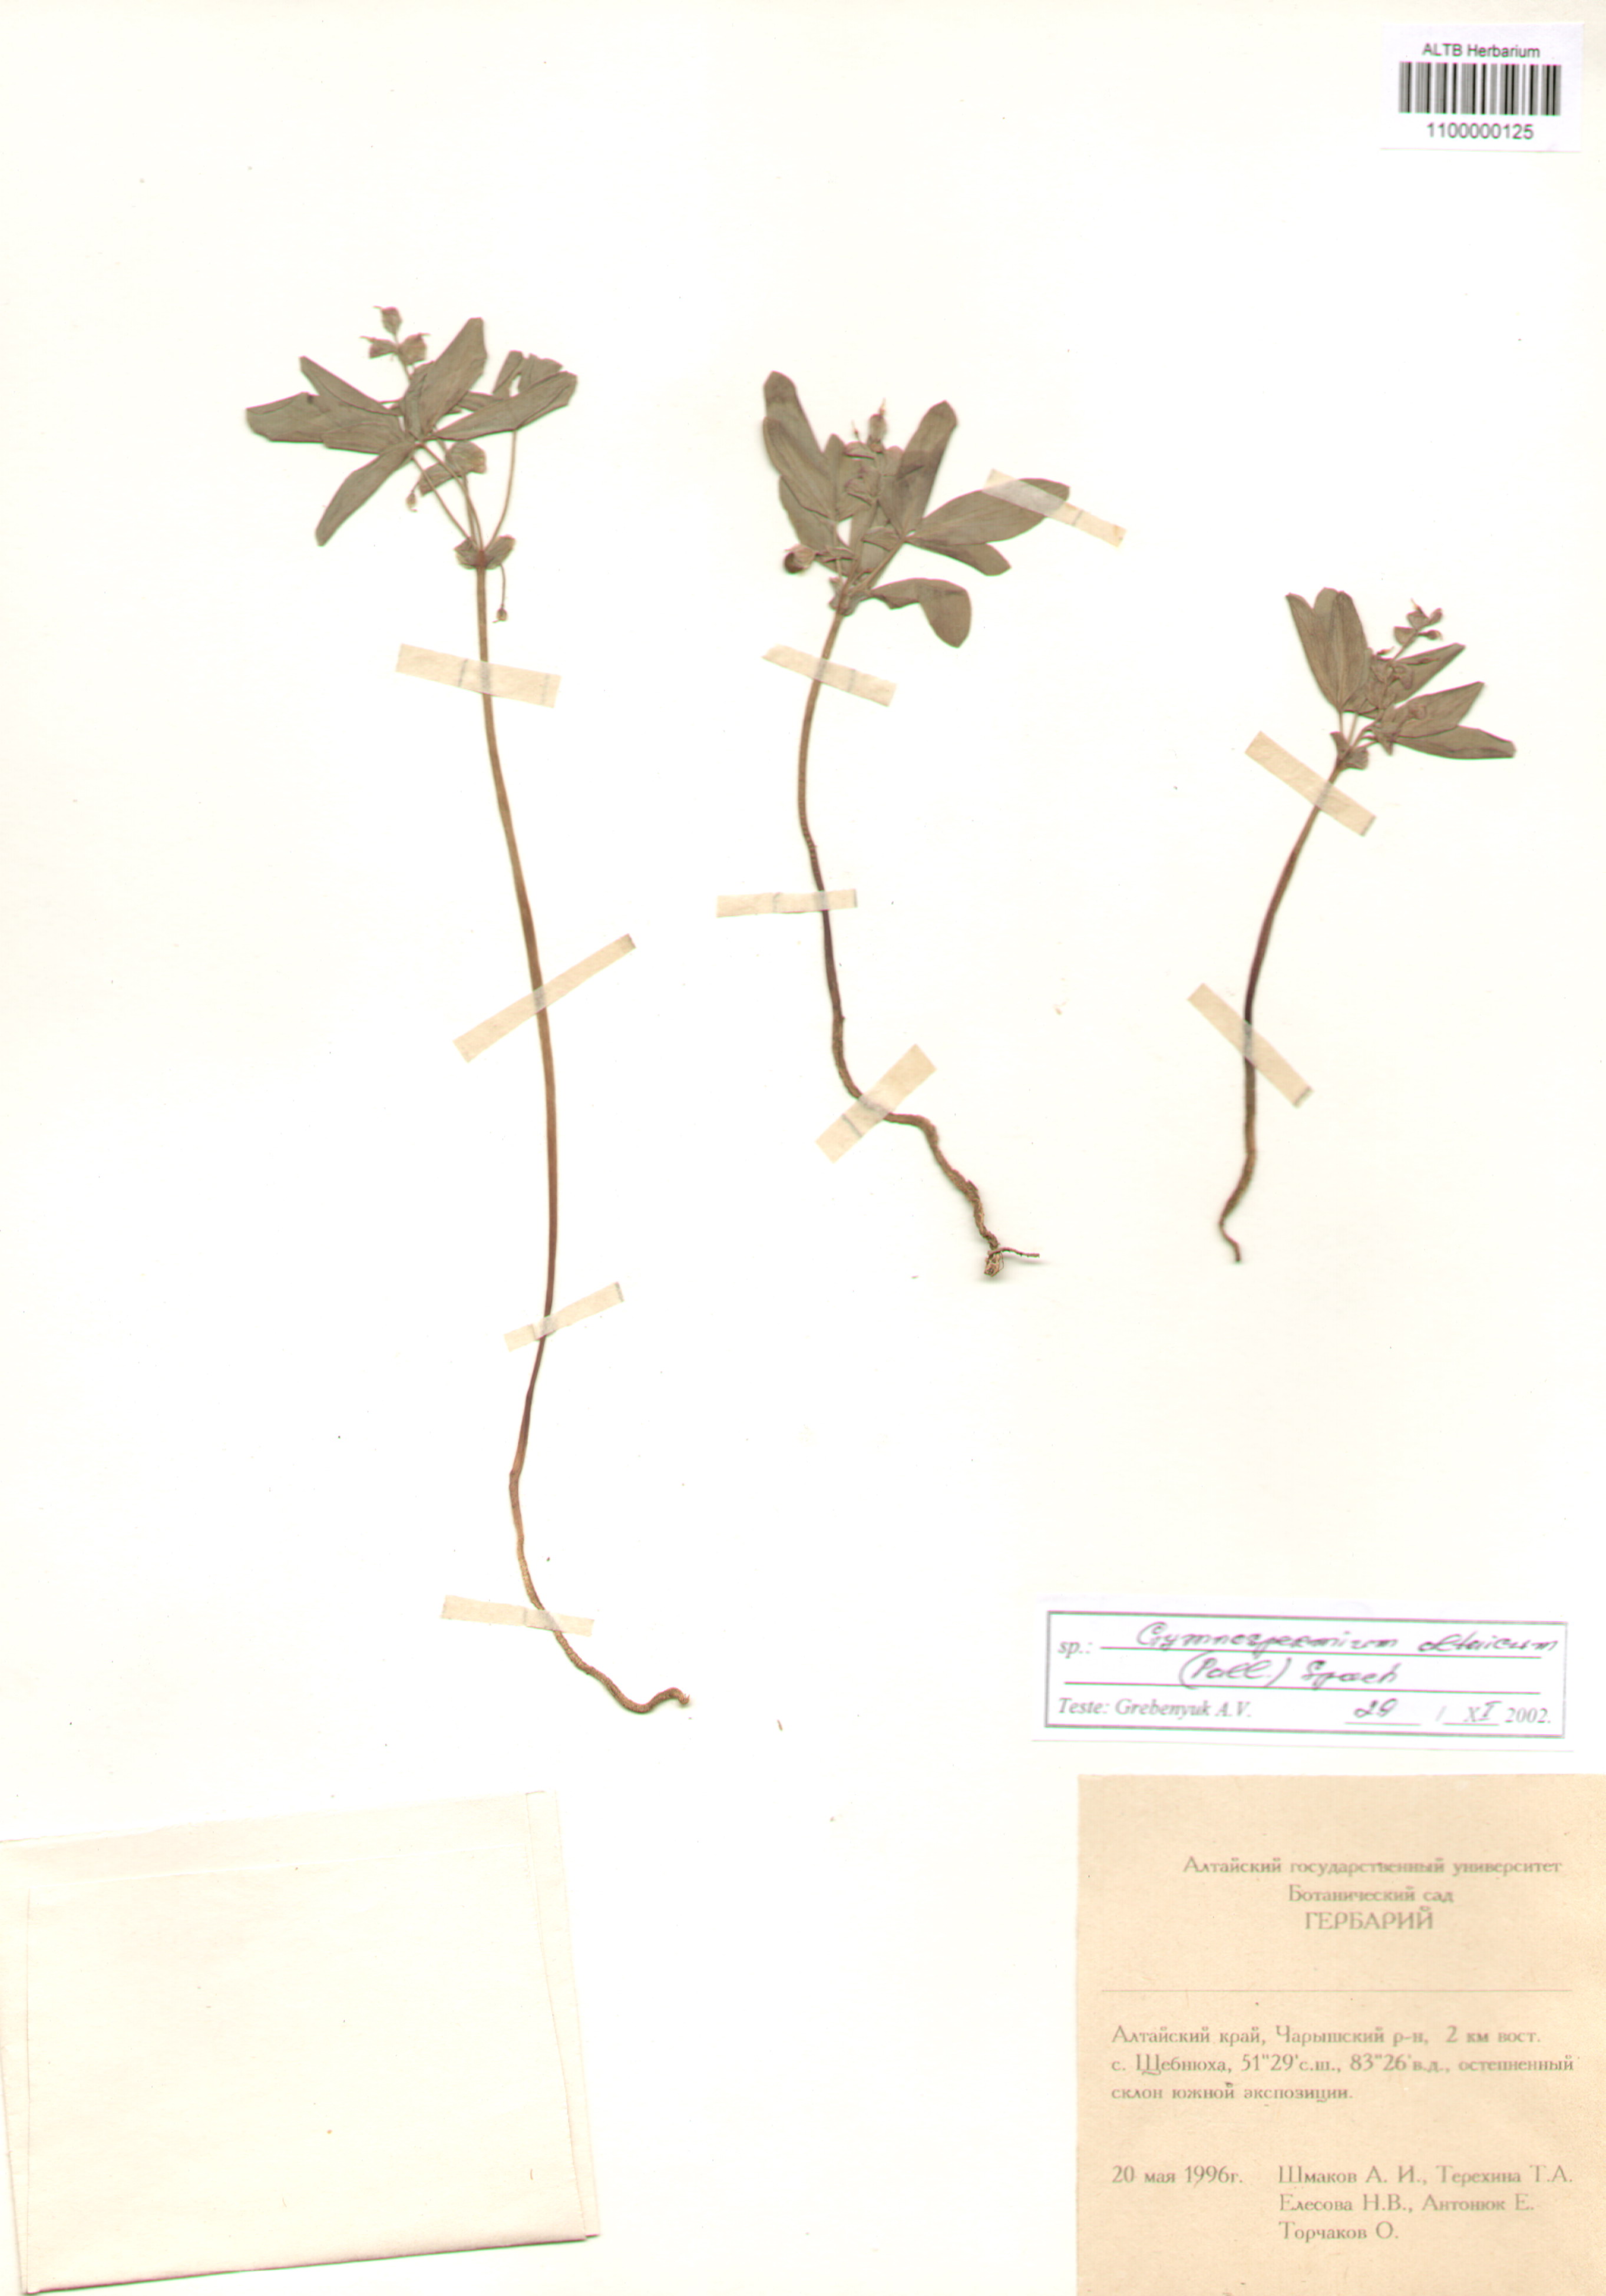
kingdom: Plantae
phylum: Tracheophyta
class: Magnoliopsida
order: Ranunculales
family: Berberidaceae
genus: Gymnospermium
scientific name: Gymnospermium altaicum
